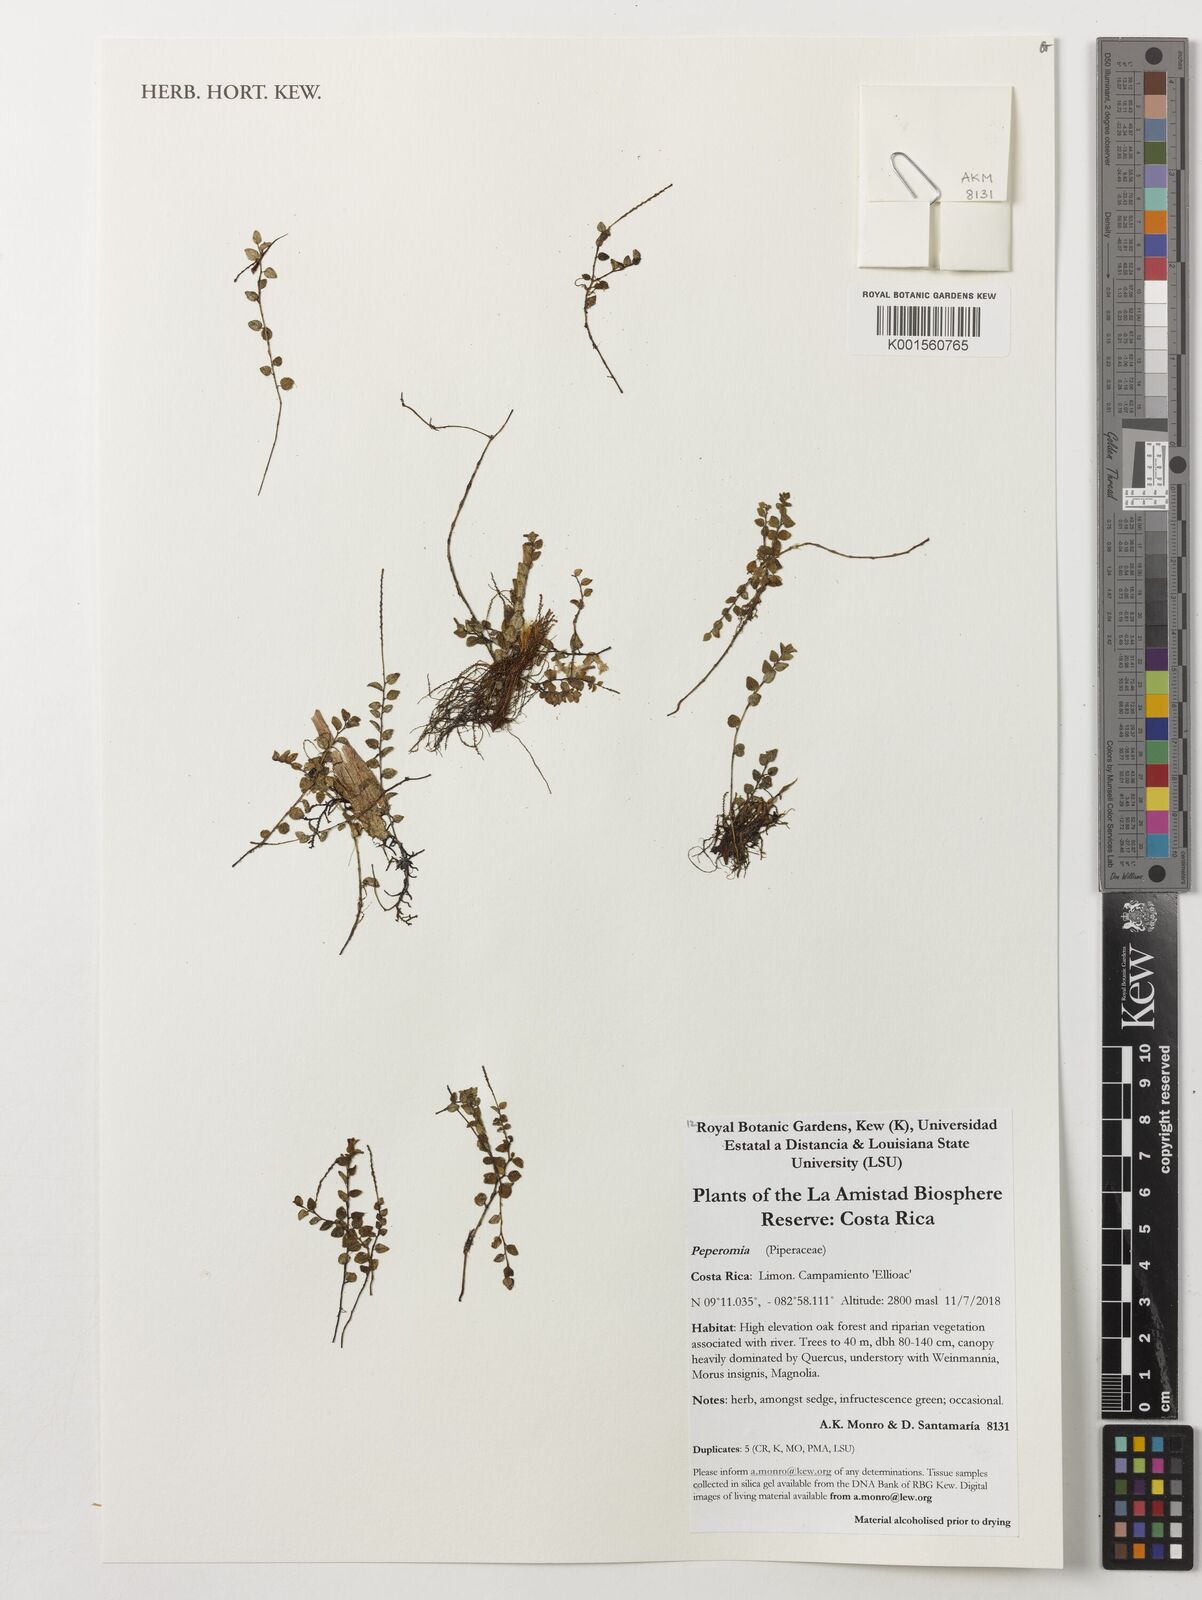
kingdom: Plantae
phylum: Tracheophyta
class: Magnoliopsida
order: Piperales
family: Piperaceae
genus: Peperomia
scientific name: Peperomia
